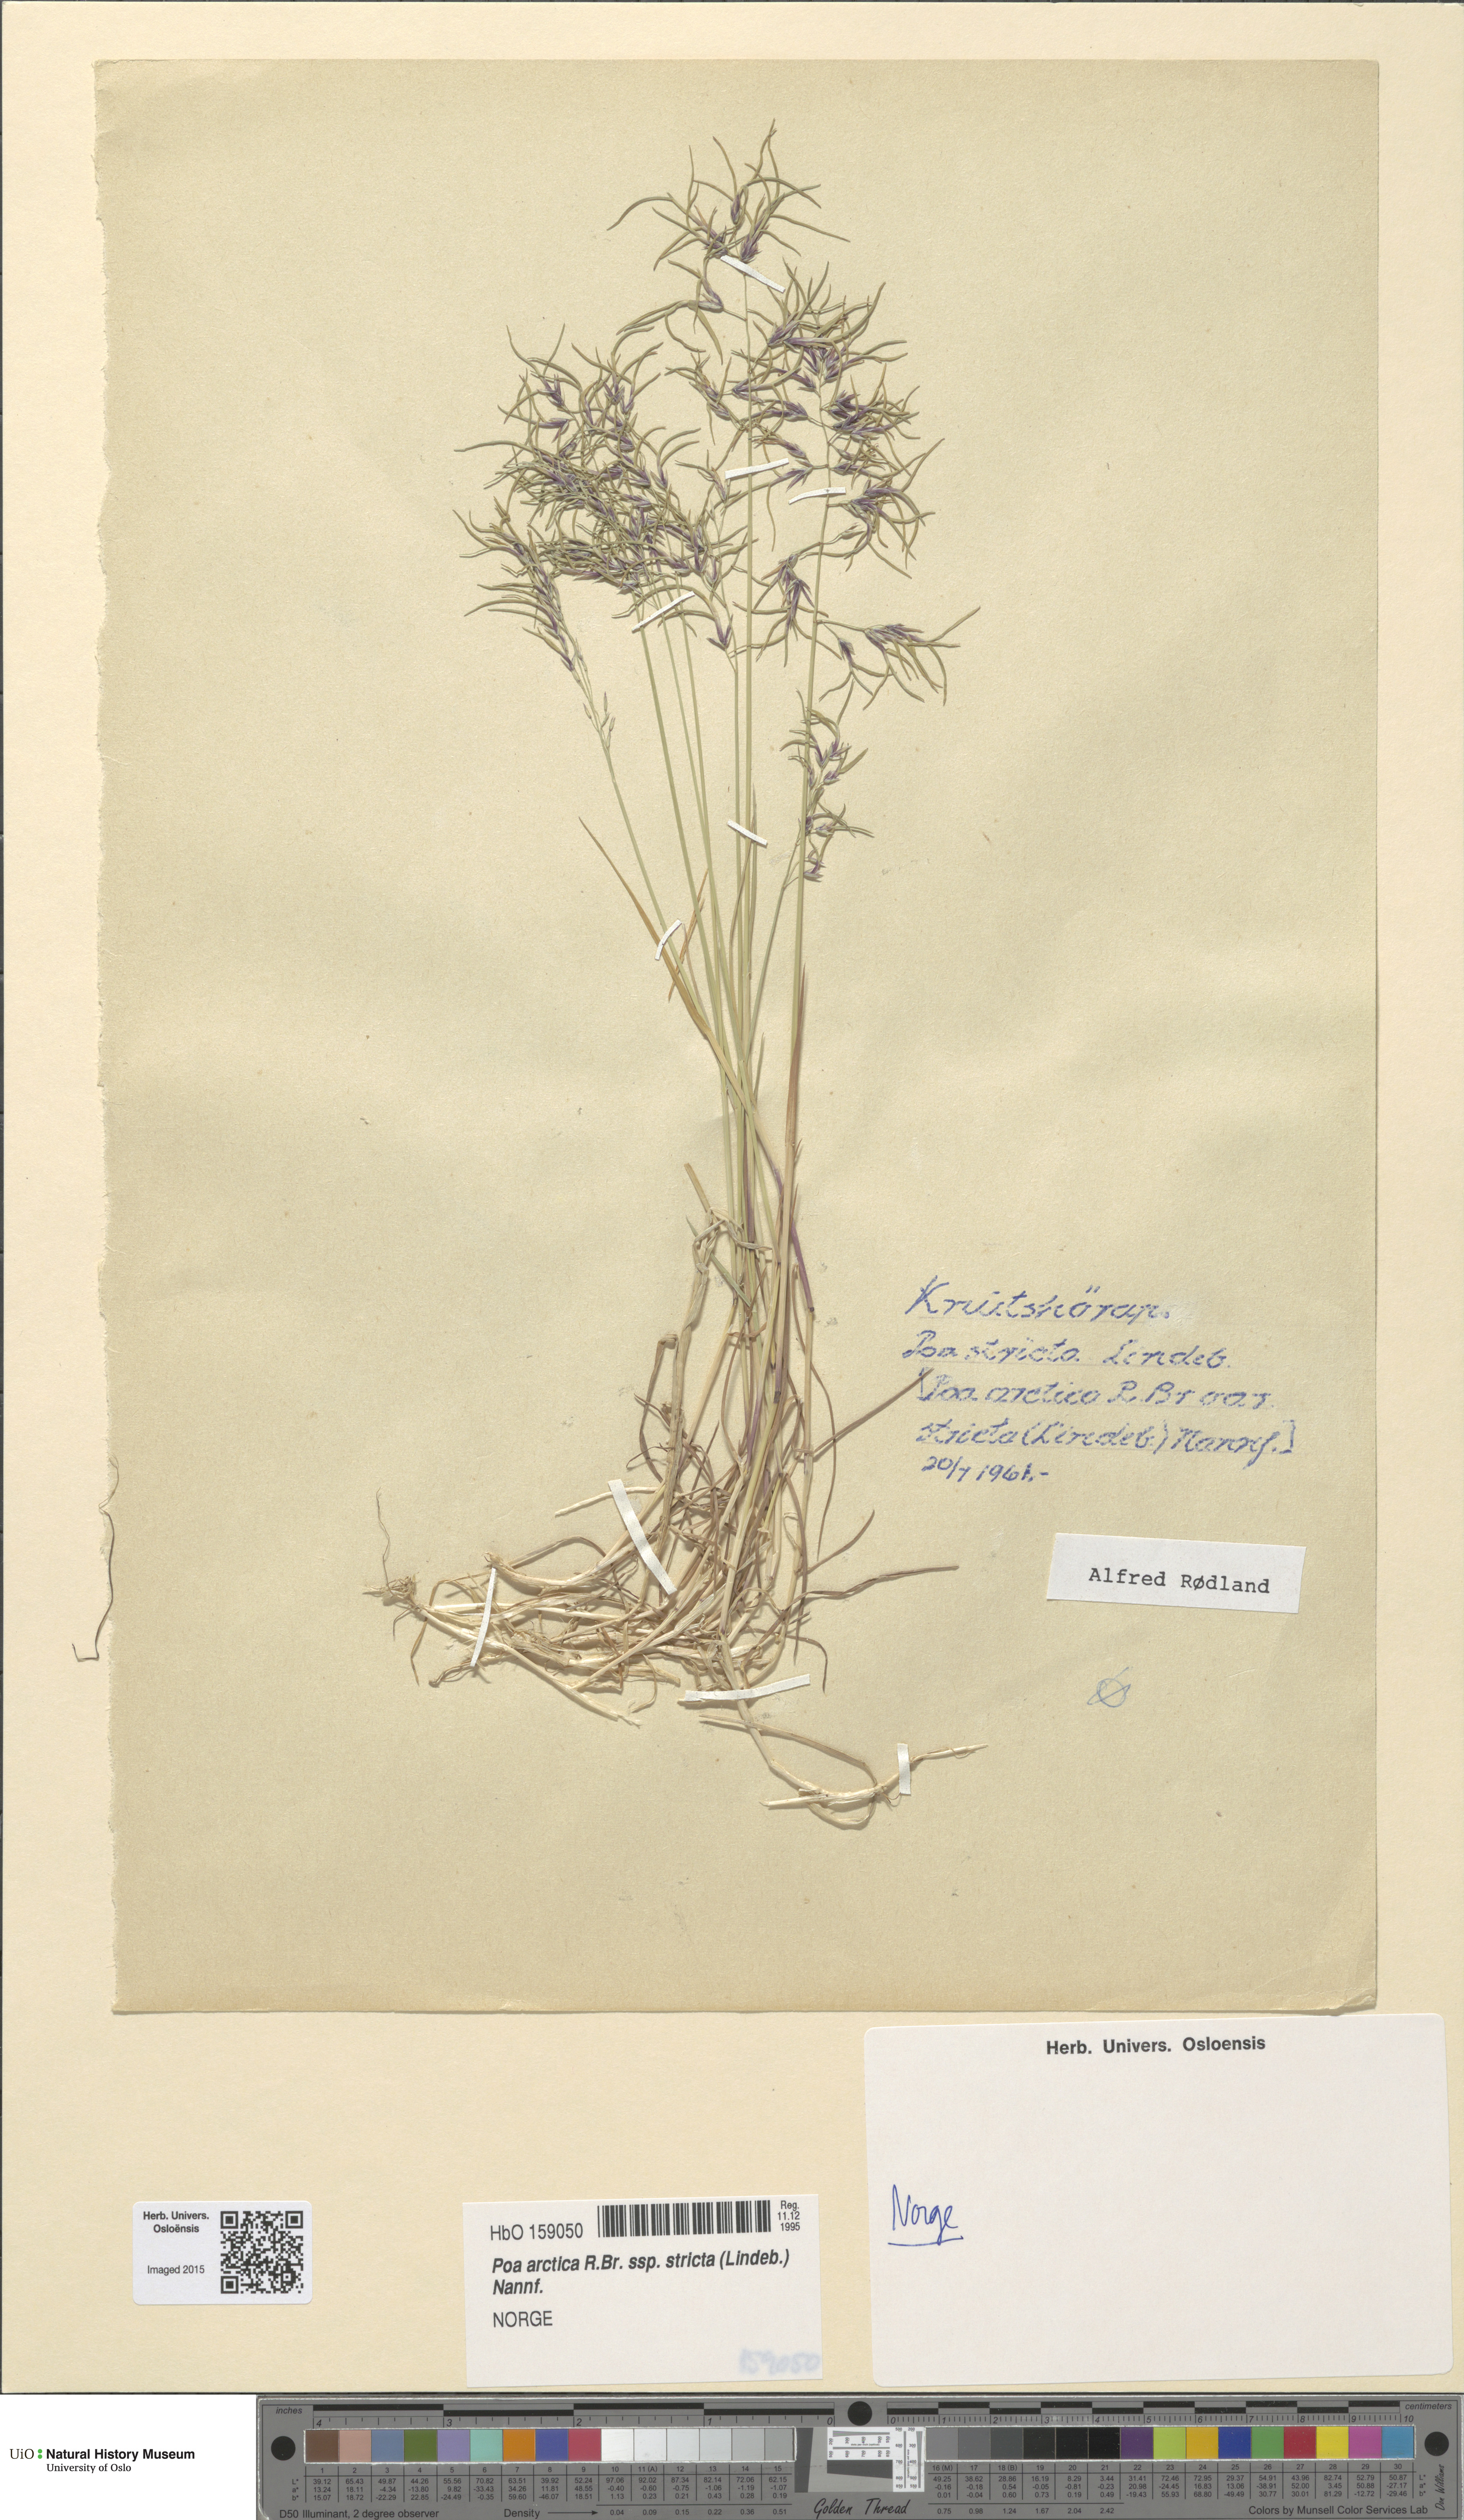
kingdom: Plantae
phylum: Tracheophyta
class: Liliopsida
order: Poales
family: Poaceae
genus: Poa
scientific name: Poa lindebergii
